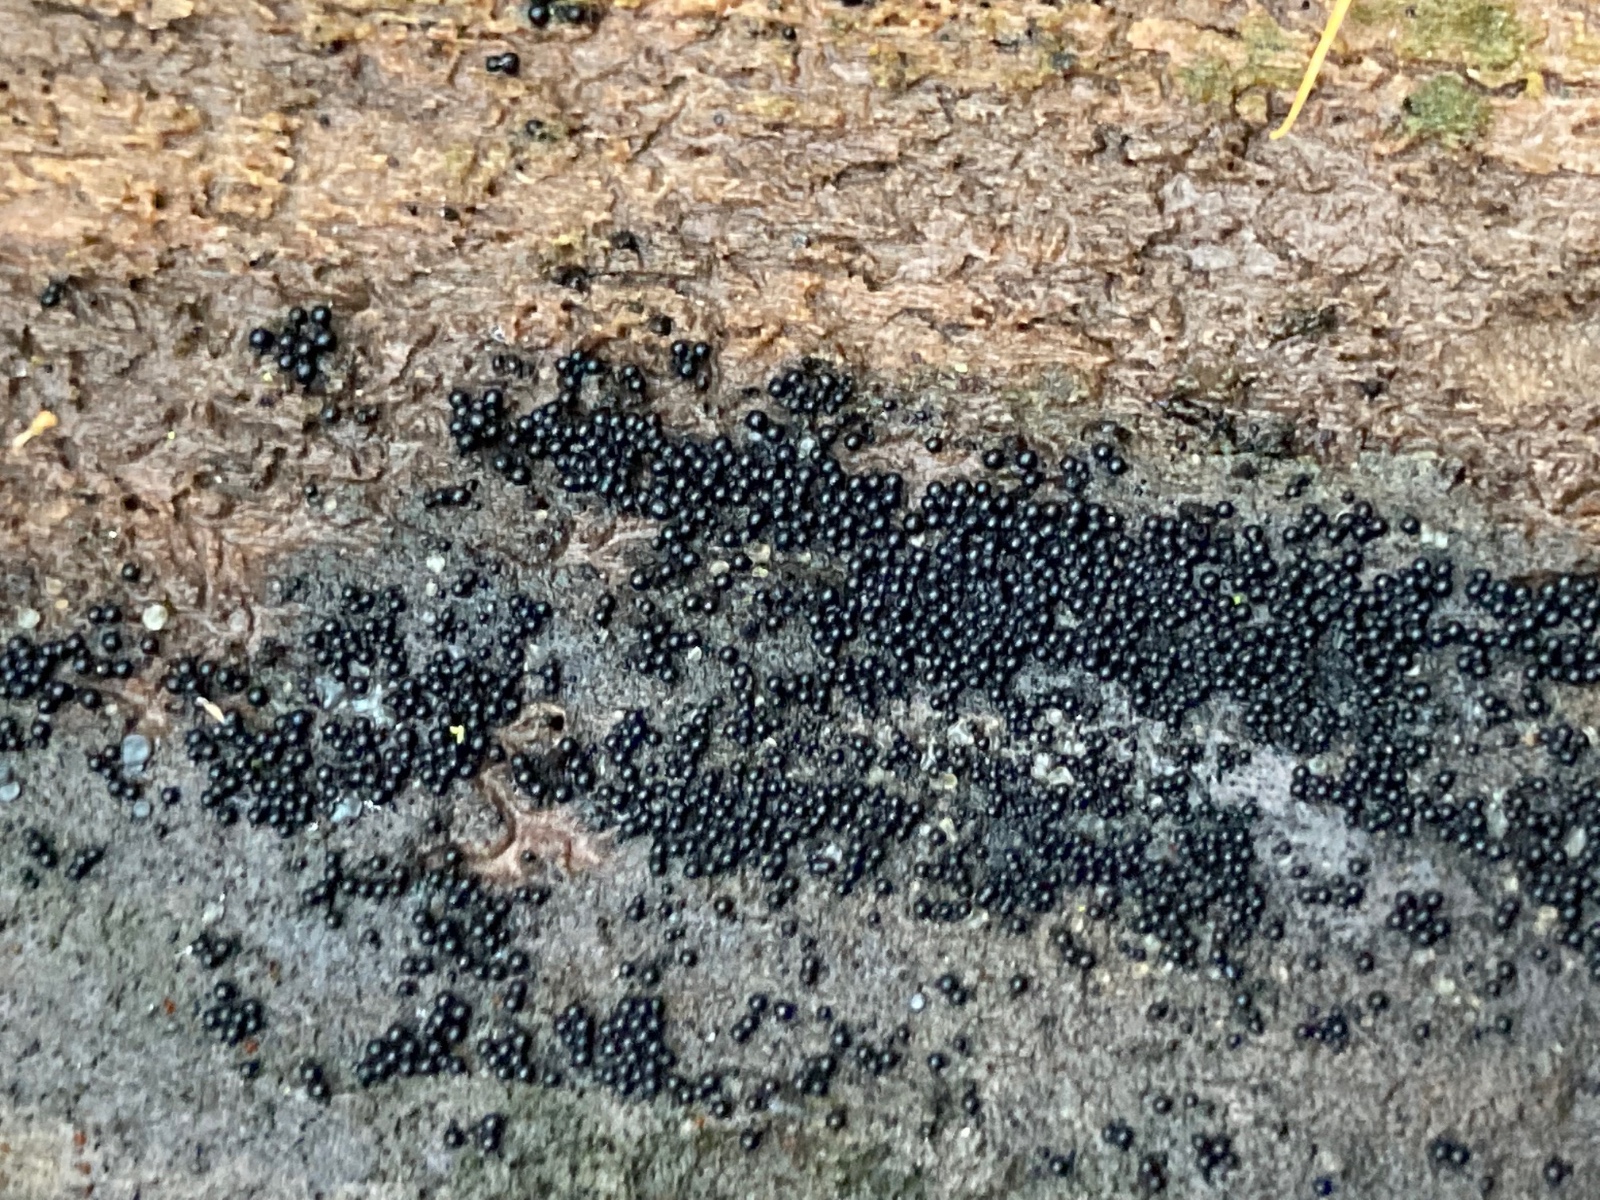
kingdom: Fungi
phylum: Ascomycota
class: Sordariomycetes
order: Sordariales
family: Helminthosphaeriaceae
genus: Ruzenia
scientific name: Ruzenia spermoides
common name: glat børstekerne
